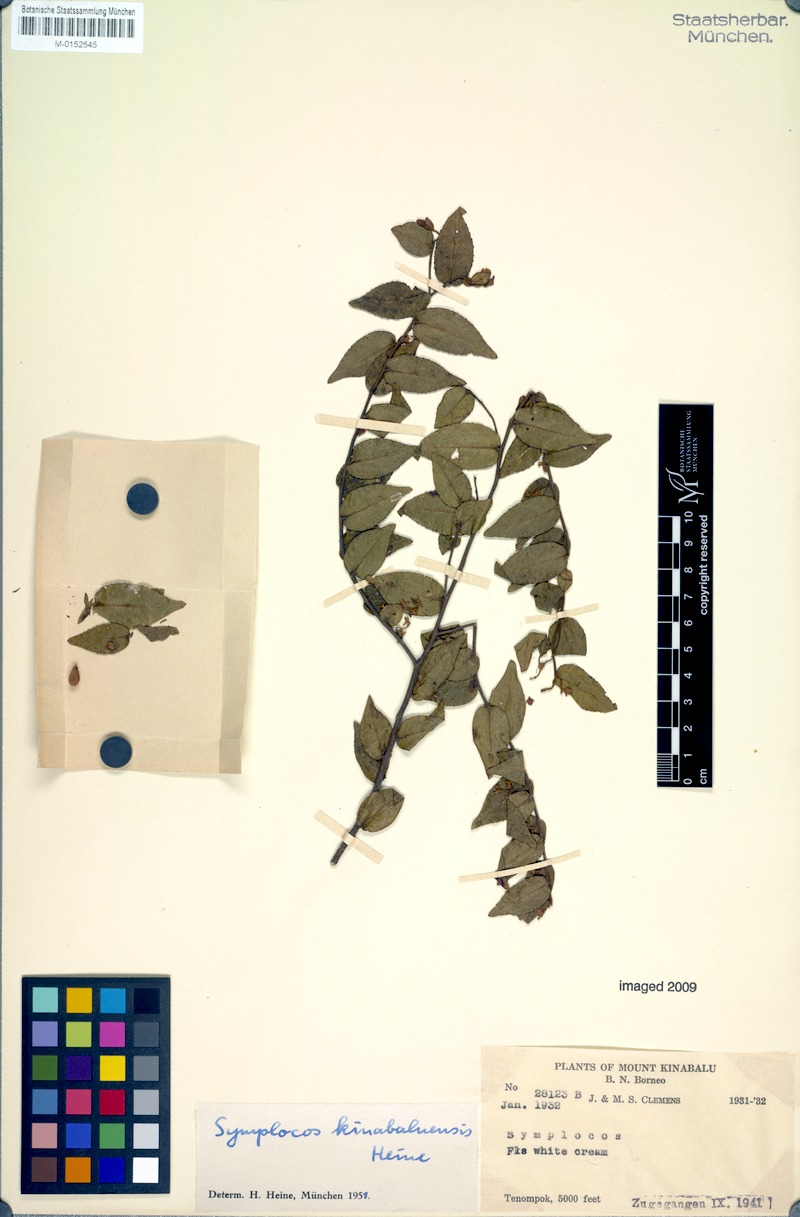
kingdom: Plantae
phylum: Tracheophyta
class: Magnoliopsida
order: Ericales
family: Symplocaceae
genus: Symplocos
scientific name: Symplocos laeteviridis
